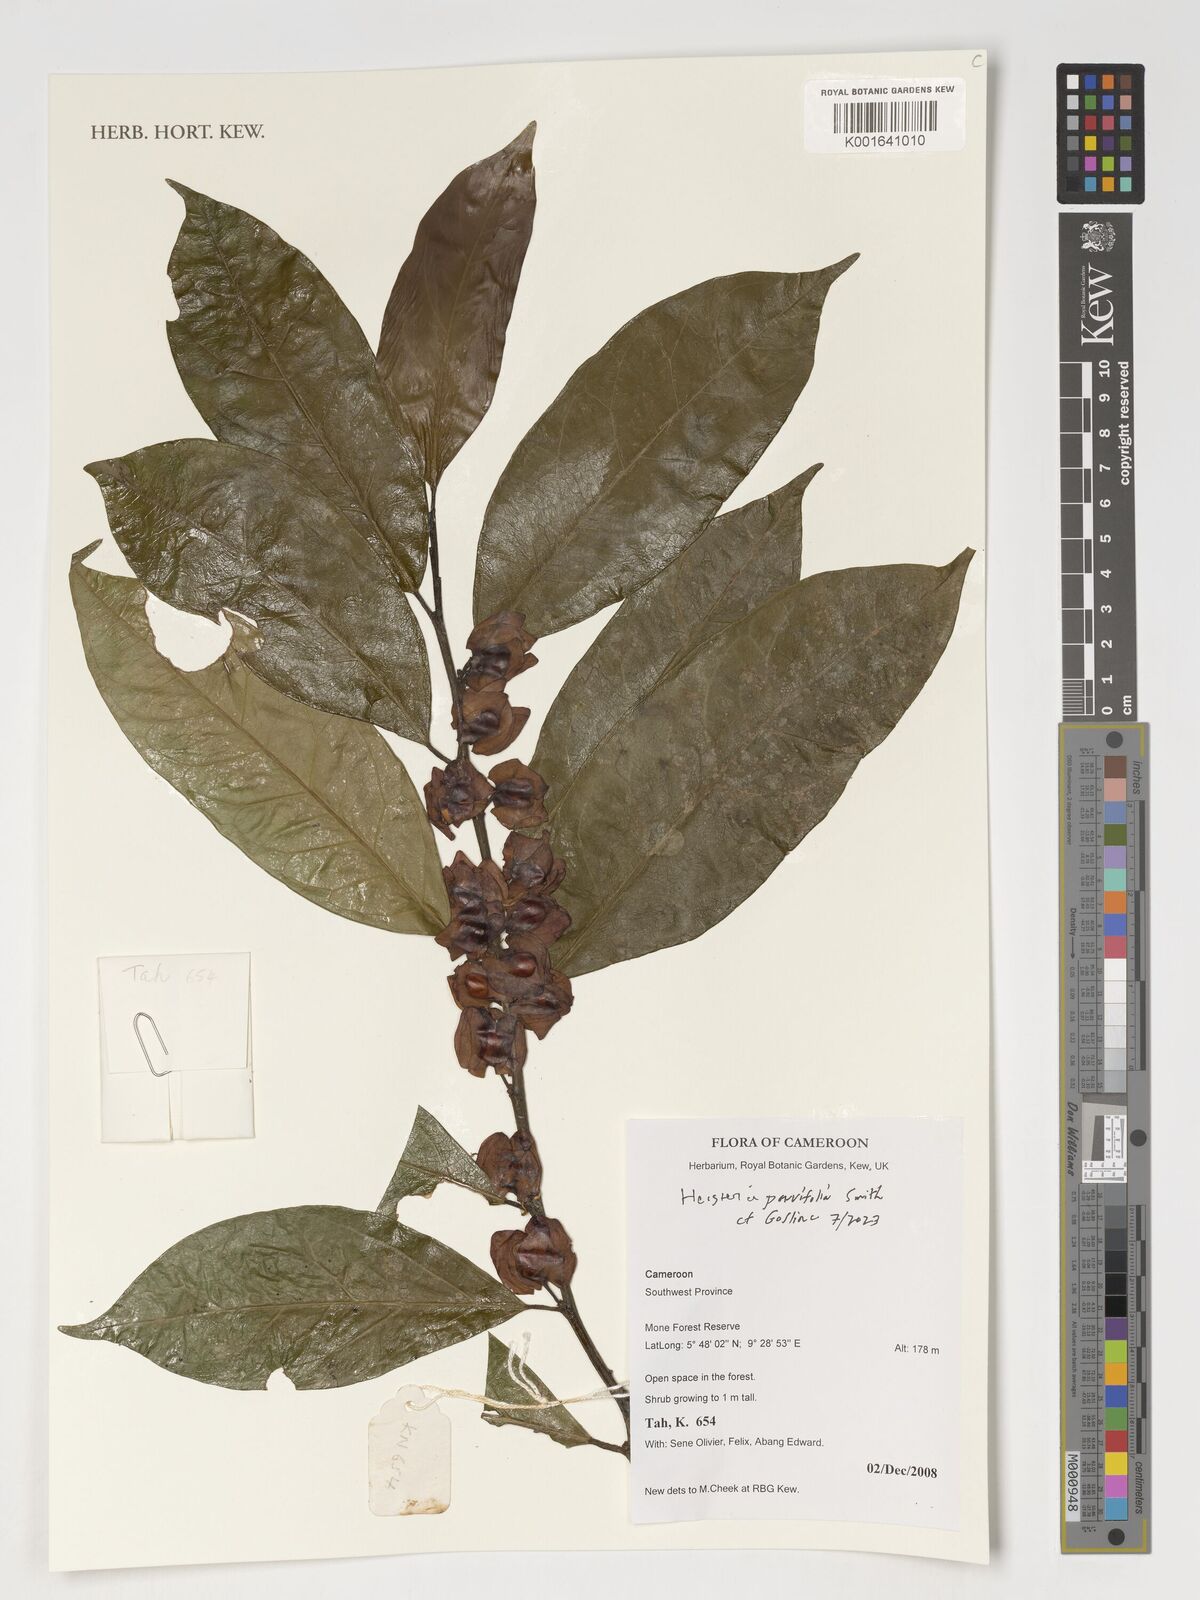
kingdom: Plantae
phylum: Tracheophyta
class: Magnoliopsida
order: Santalales
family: Erythropalaceae
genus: Heisteria
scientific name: Heisteria parvifolia
